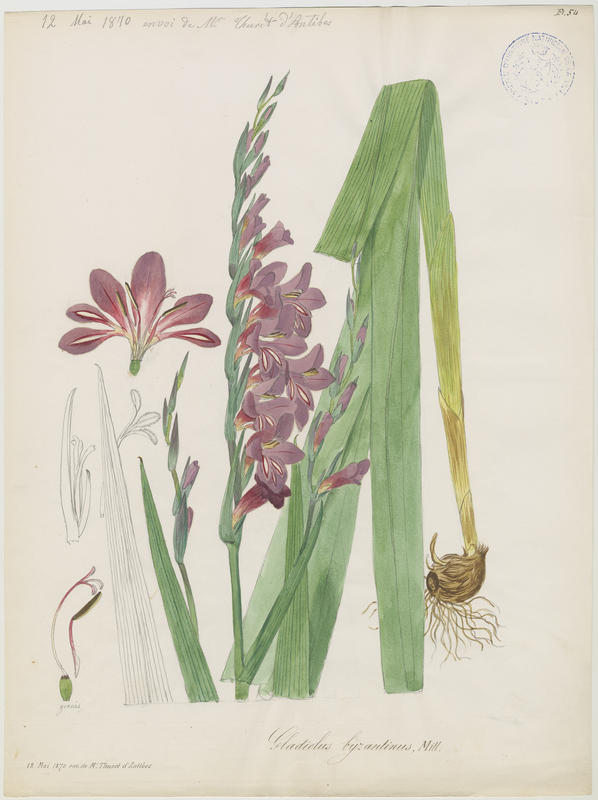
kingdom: Plantae
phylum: Tracheophyta
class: Liliopsida
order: Asparagales
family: Iridaceae
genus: Gladiolus
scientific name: Gladiolus byzantinus
